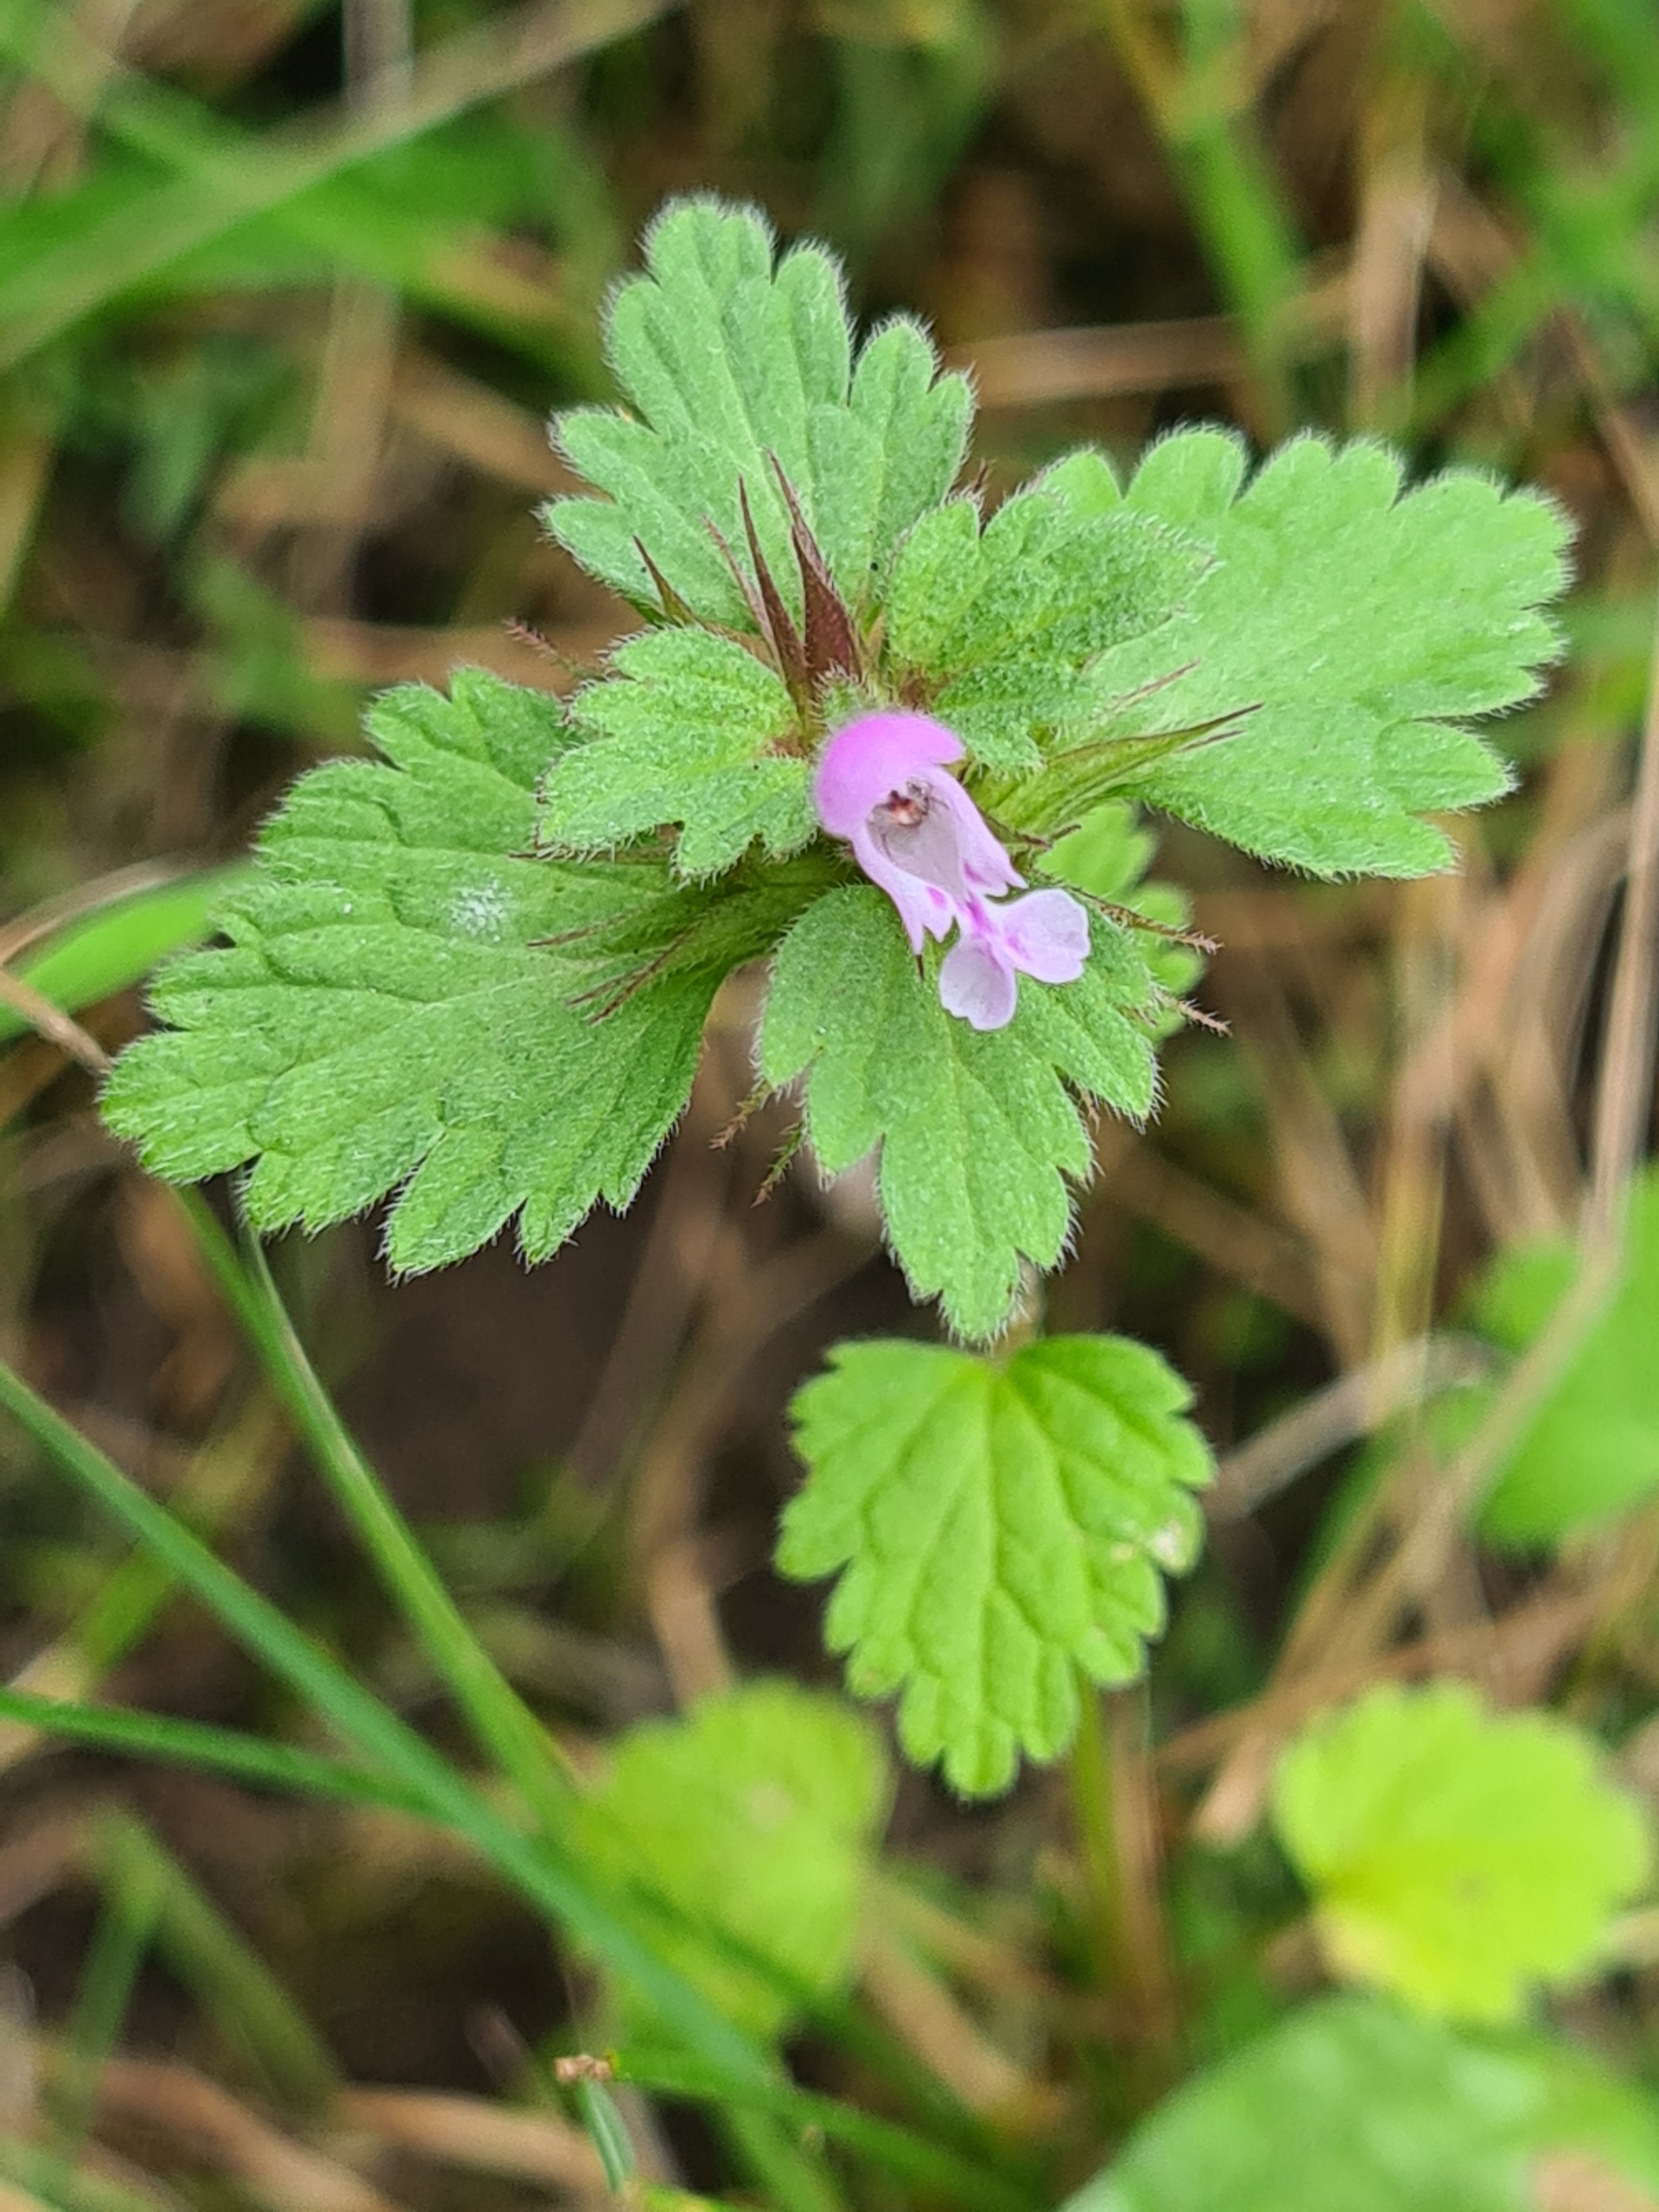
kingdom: Plantae
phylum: Tracheophyta
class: Magnoliopsida
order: Lamiales
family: Lamiaceae
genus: Lamium
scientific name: Lamium hybridum
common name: Fliget tvetand
